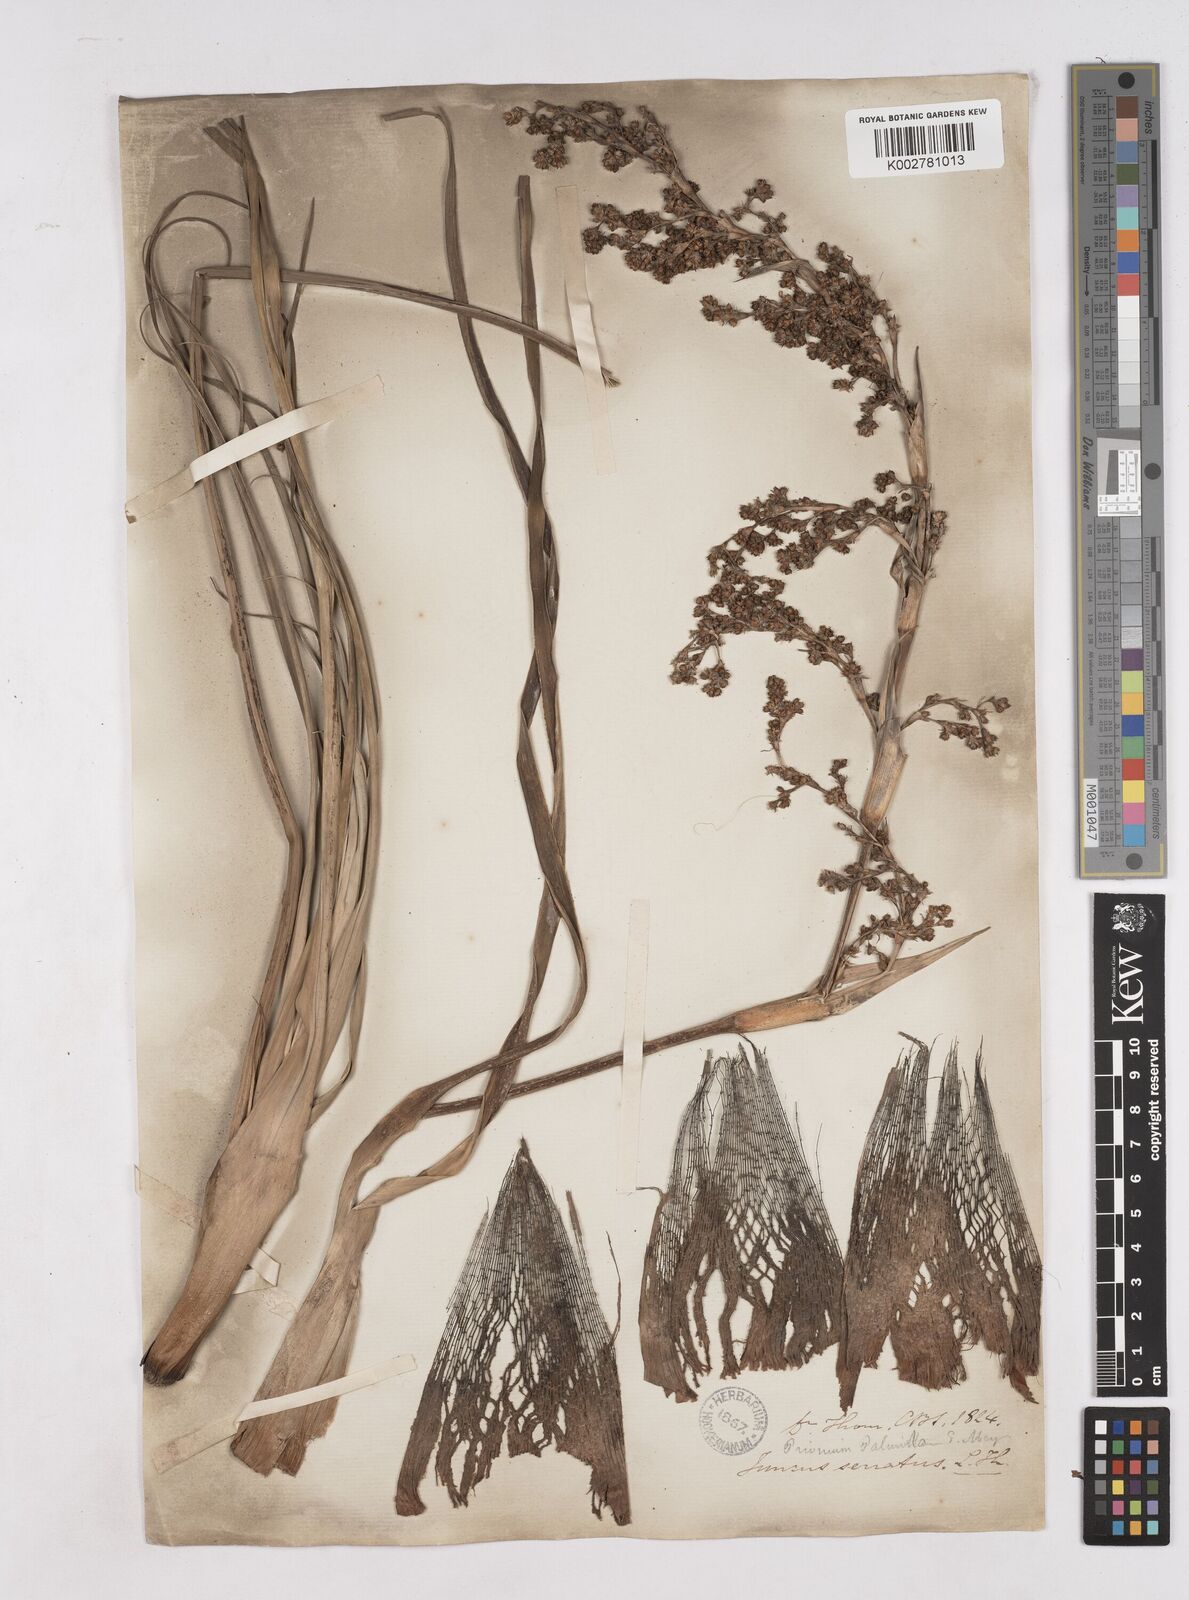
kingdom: Plantae
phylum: Tracheophyta
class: Liliopsida
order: Poales
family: Thurniaceae
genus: Prionium
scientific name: Prionium serratum
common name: Palmiet
